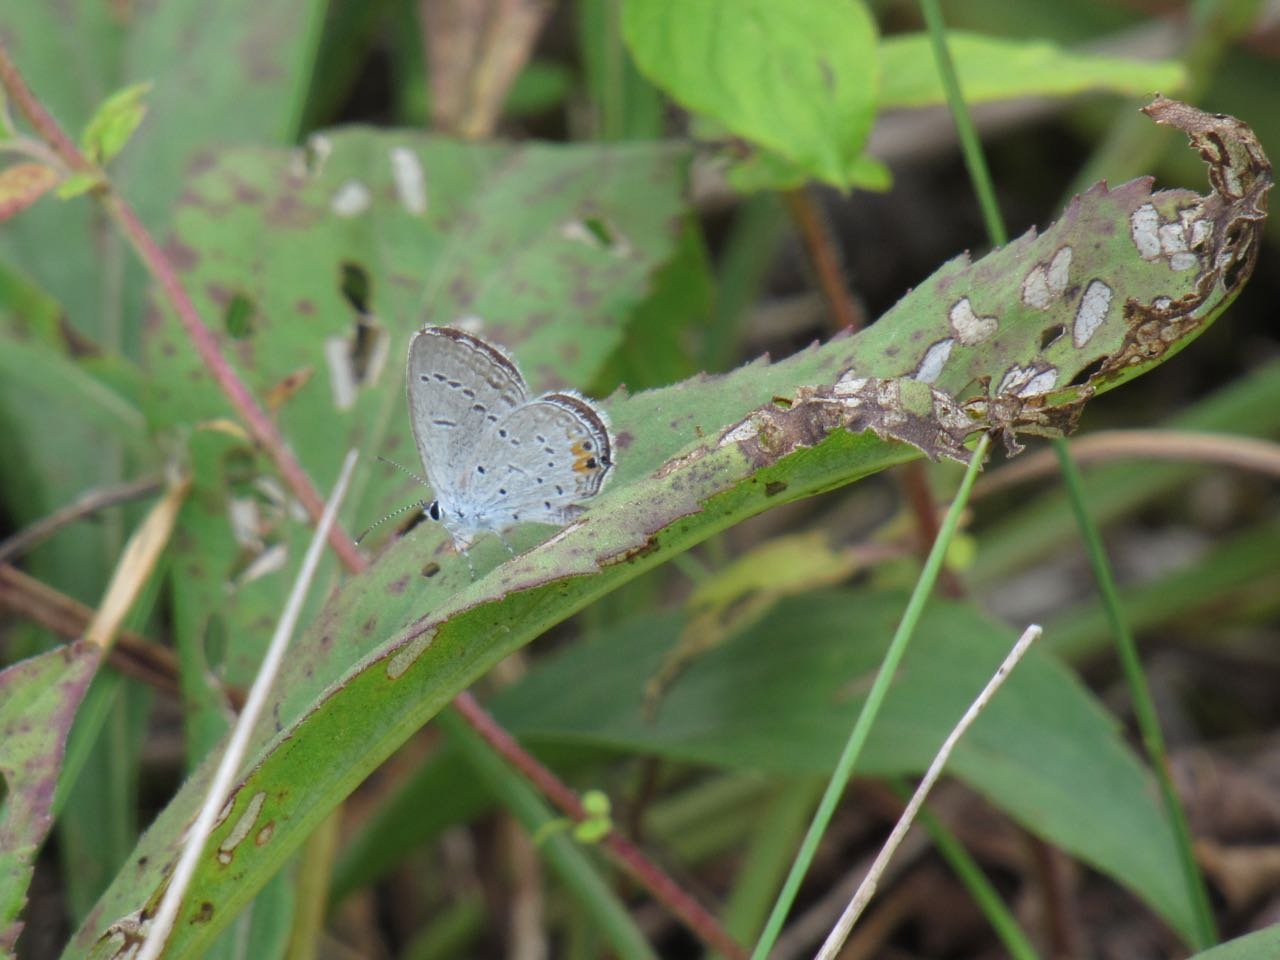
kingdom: Animalia
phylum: Arthropoda
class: Insecta
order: Lepidoptera
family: Lycaenidae
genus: Elkalyce
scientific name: Elkalyce comyntas
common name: Eastern Tailed-Blue
